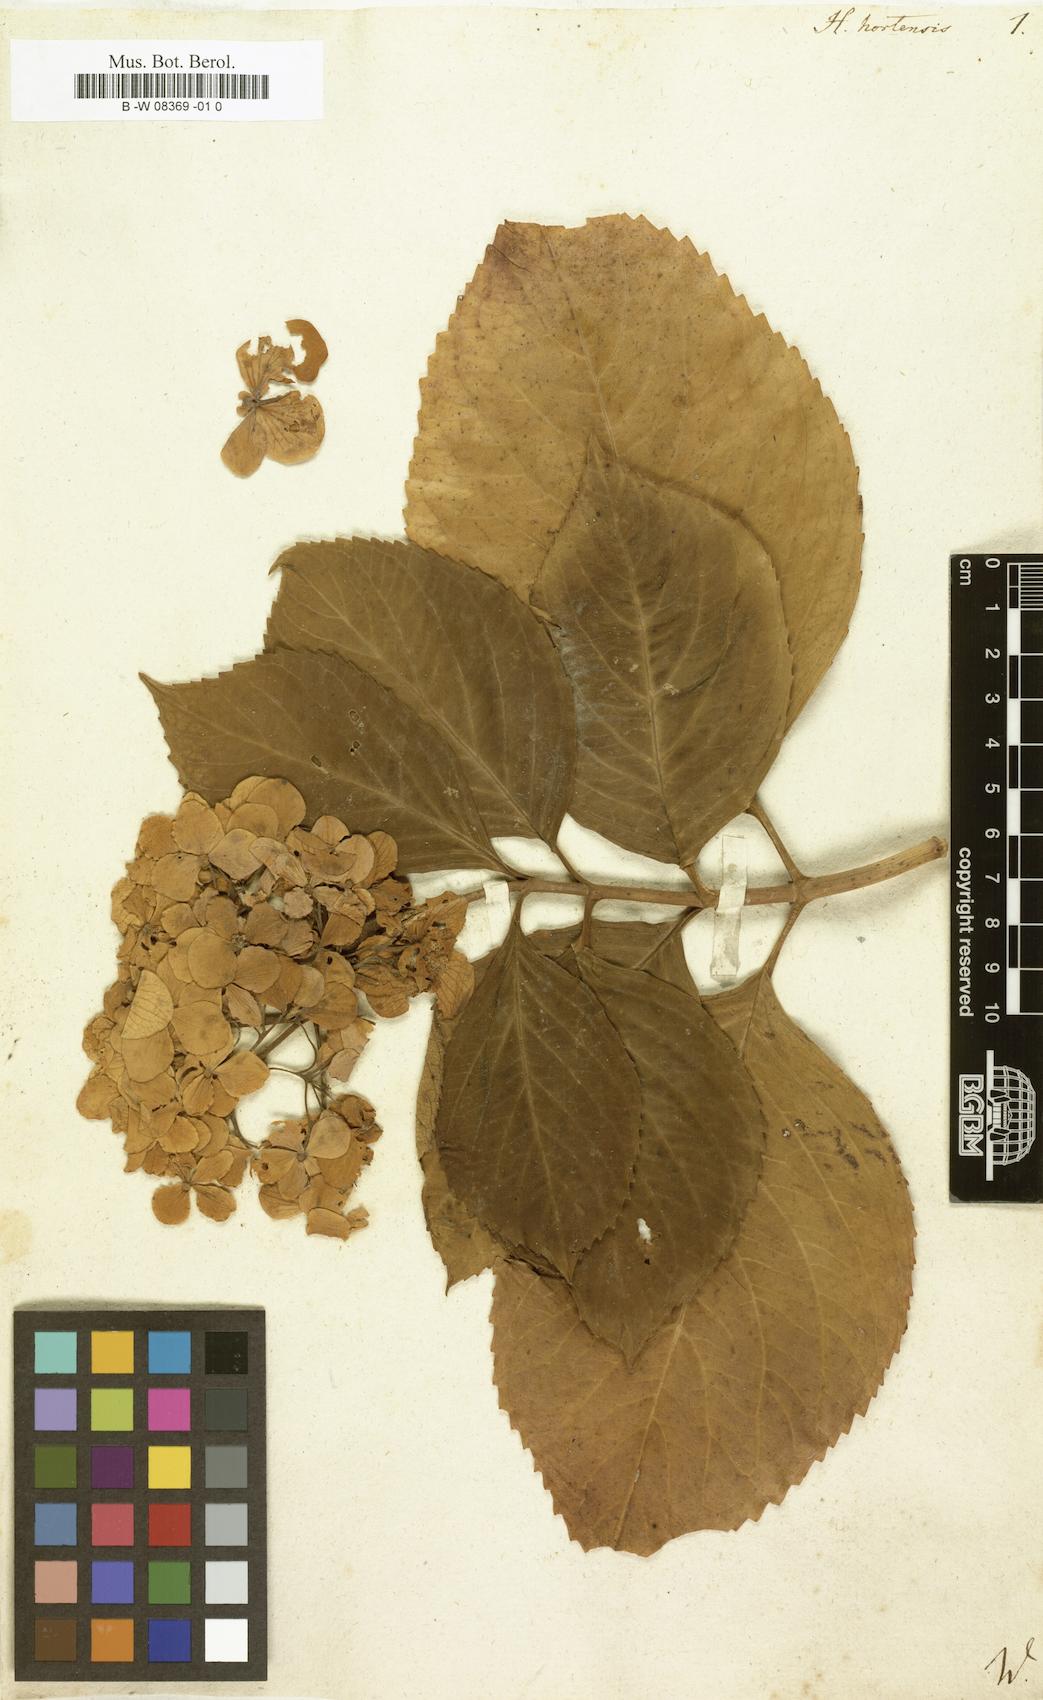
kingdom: Plantae
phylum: Tracheophyta
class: Magnoliopsida
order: Cornales
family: Hydrangeaceae
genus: Hydrangea
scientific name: Hydrangea macrophylla
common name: Hydrangea
